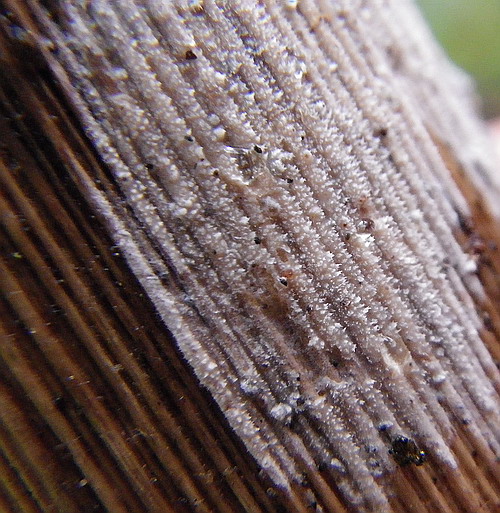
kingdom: Fungi
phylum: Basidiomycota
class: Agaricomycetes
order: Polyporales
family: Phanerochaetaceae
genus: Hyphodermella
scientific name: Hyphodermella corrugata
